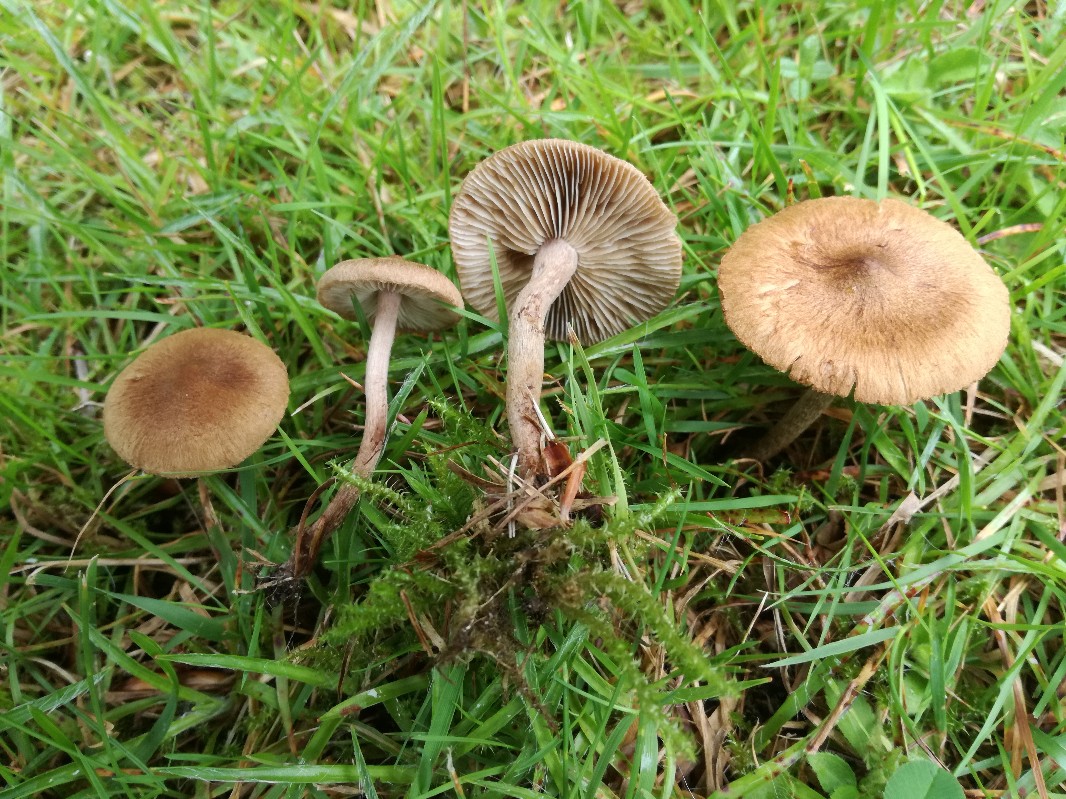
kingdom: Fungi
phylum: Basidiomycota
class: Agaricomycetes
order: Agaricales
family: Inocybaceae
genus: Inocybe
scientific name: Inocybe lacera
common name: laset trævlhat
